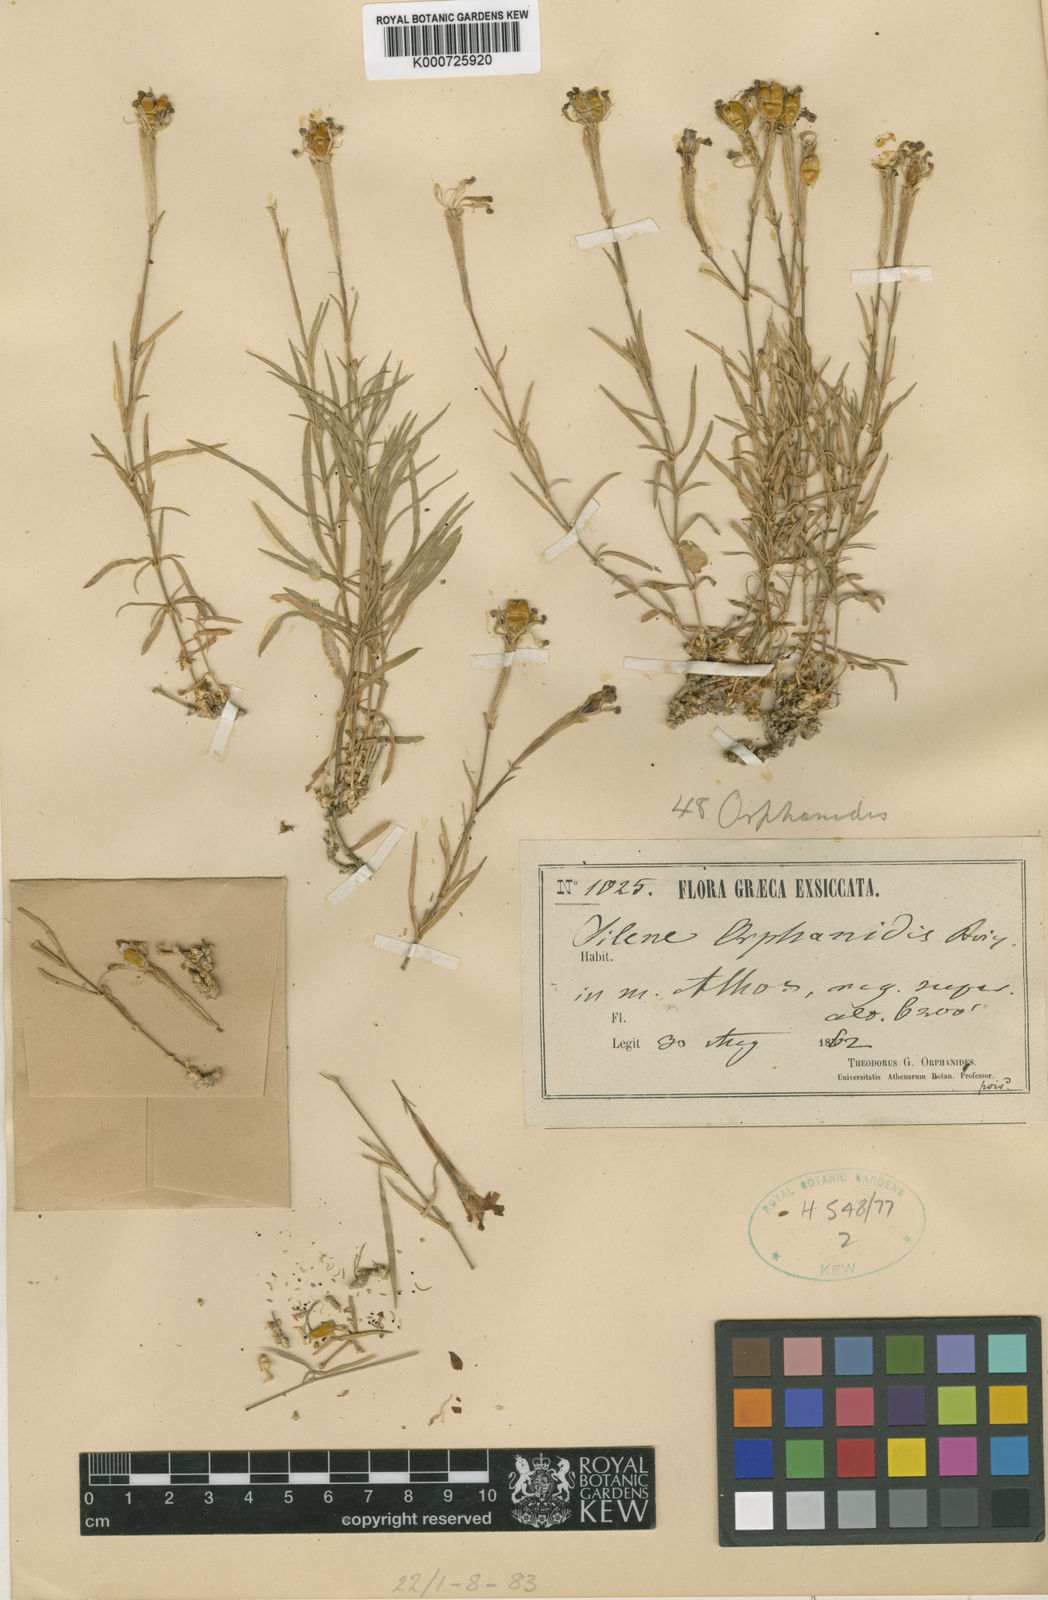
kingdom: Plantae
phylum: Tracheophyta
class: Magnoliopsida
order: Caryophyllales
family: Caryophyllaceae
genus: Silene
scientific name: Silene orphanidis
